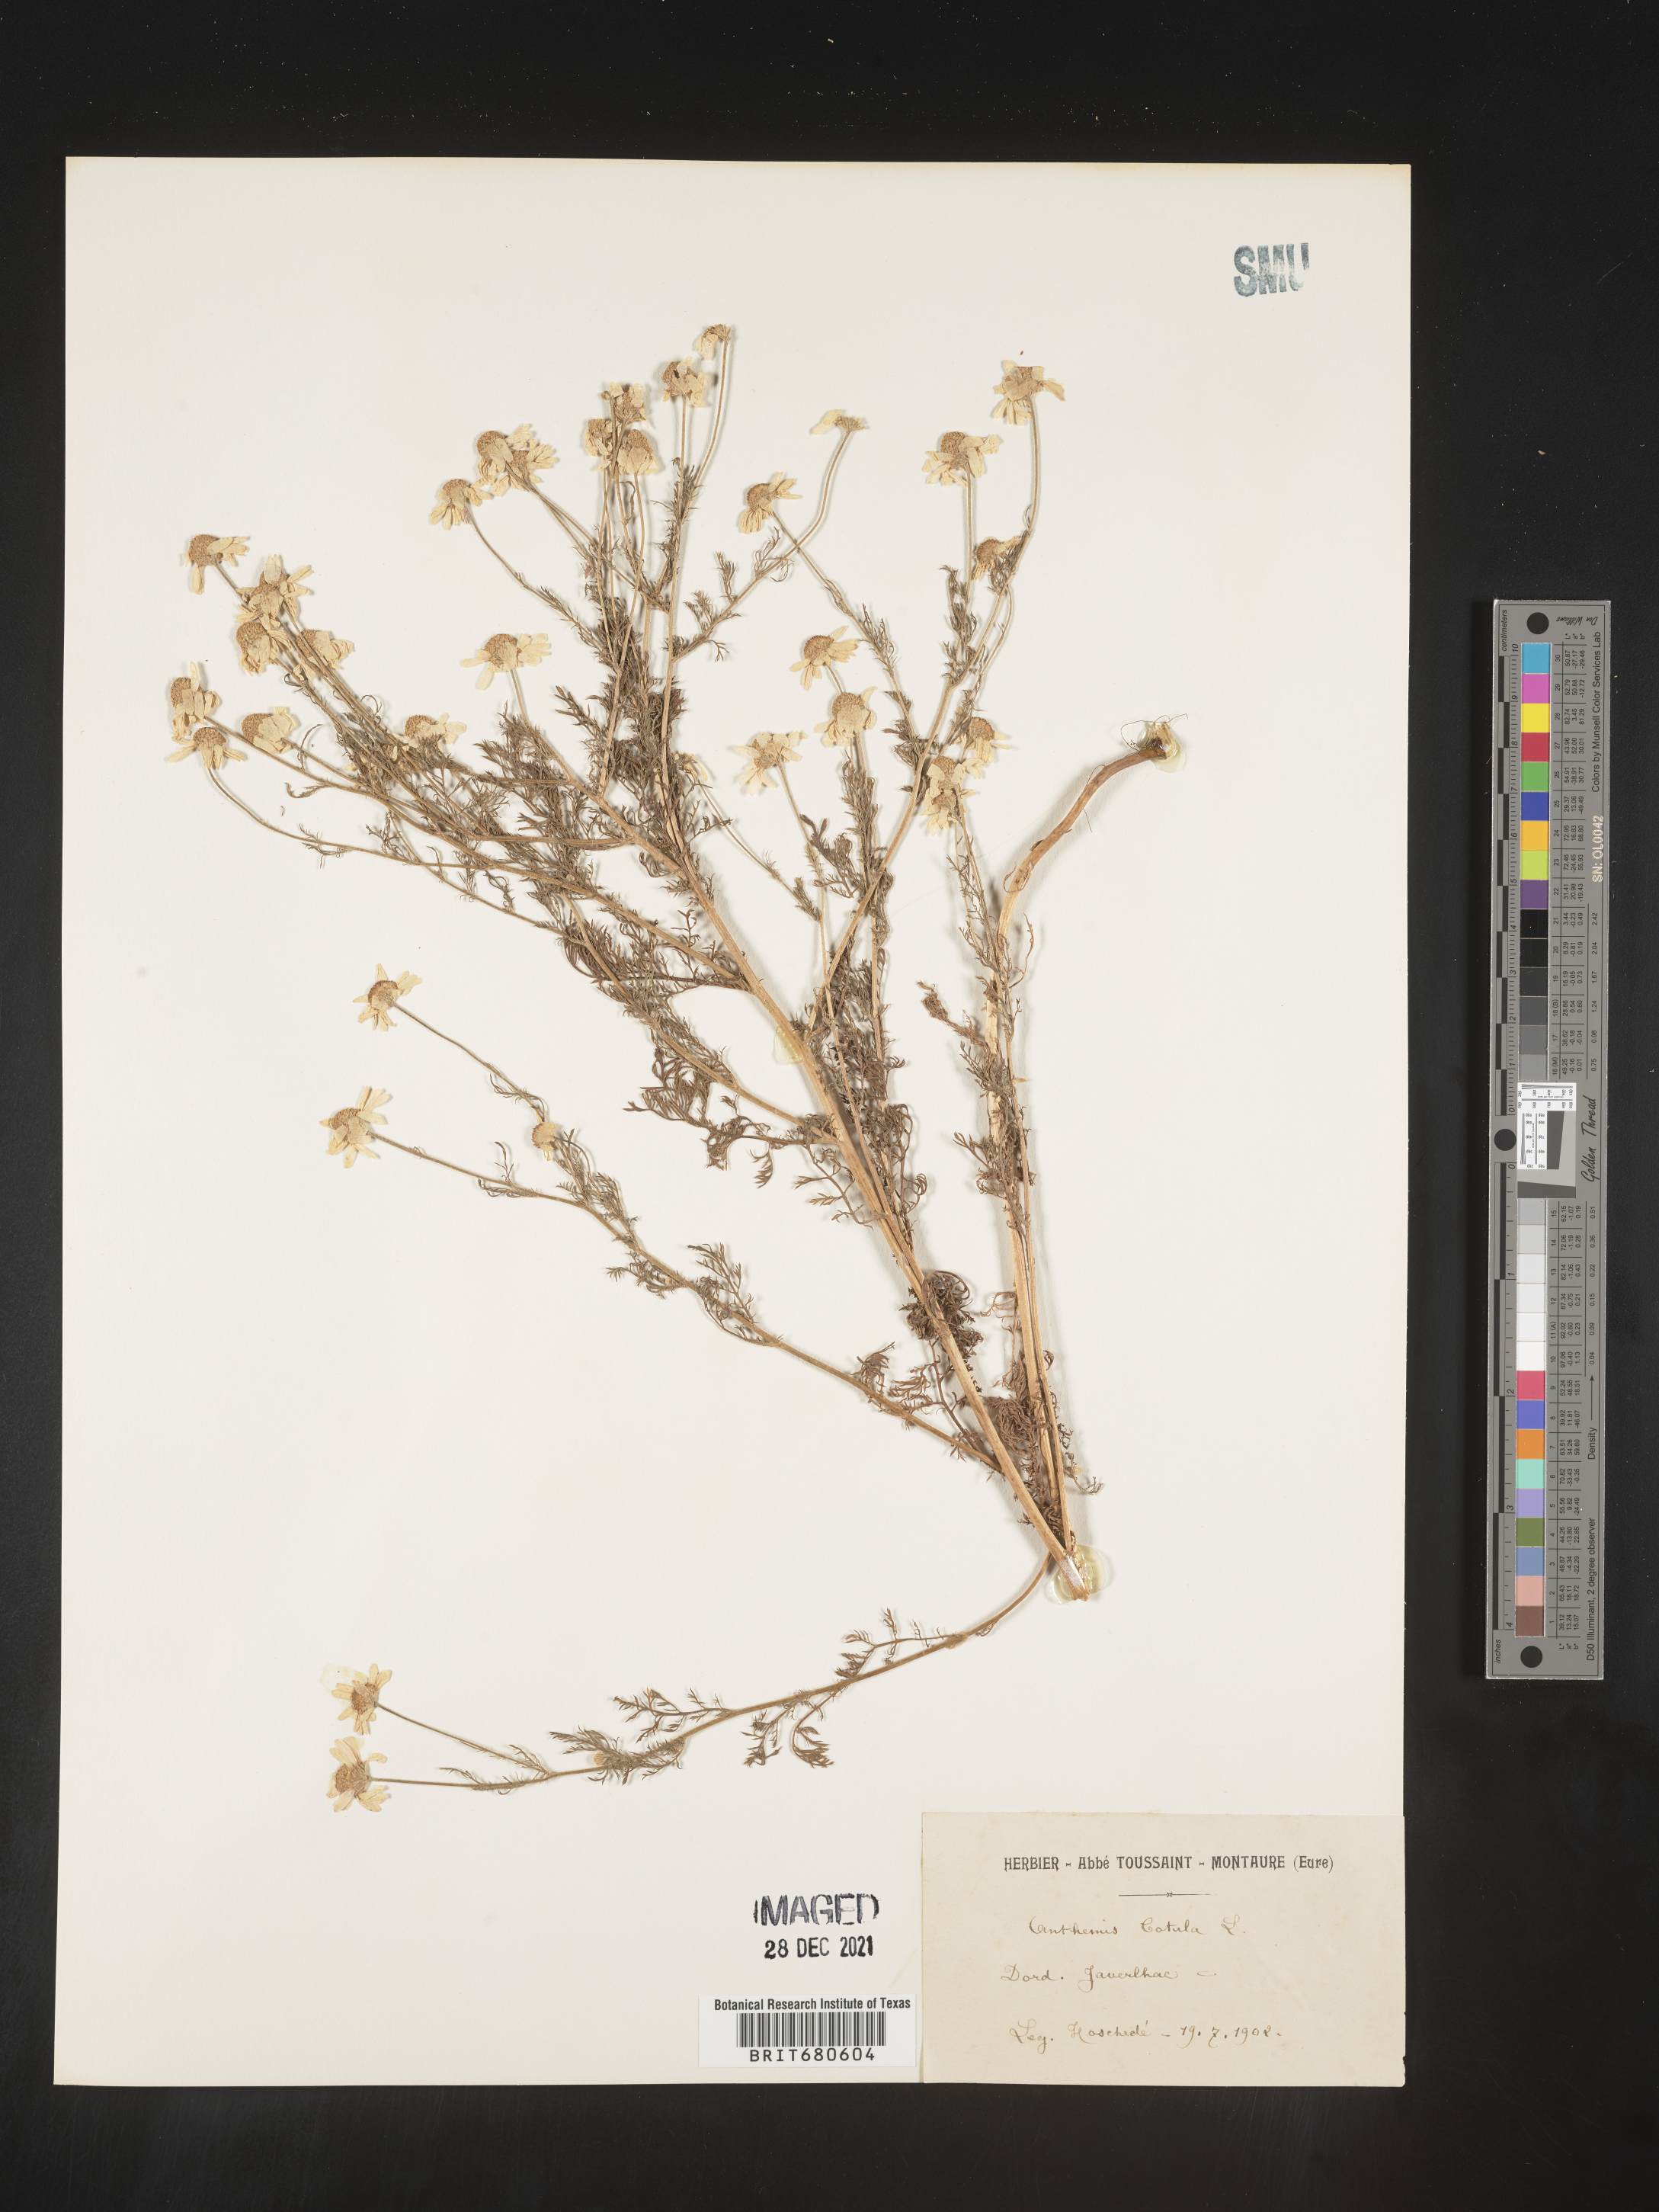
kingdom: Plantae
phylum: Tracheophyta
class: Magnoliopsida
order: Asterales
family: Asteraceae
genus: Anthemis
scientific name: Anthemis
